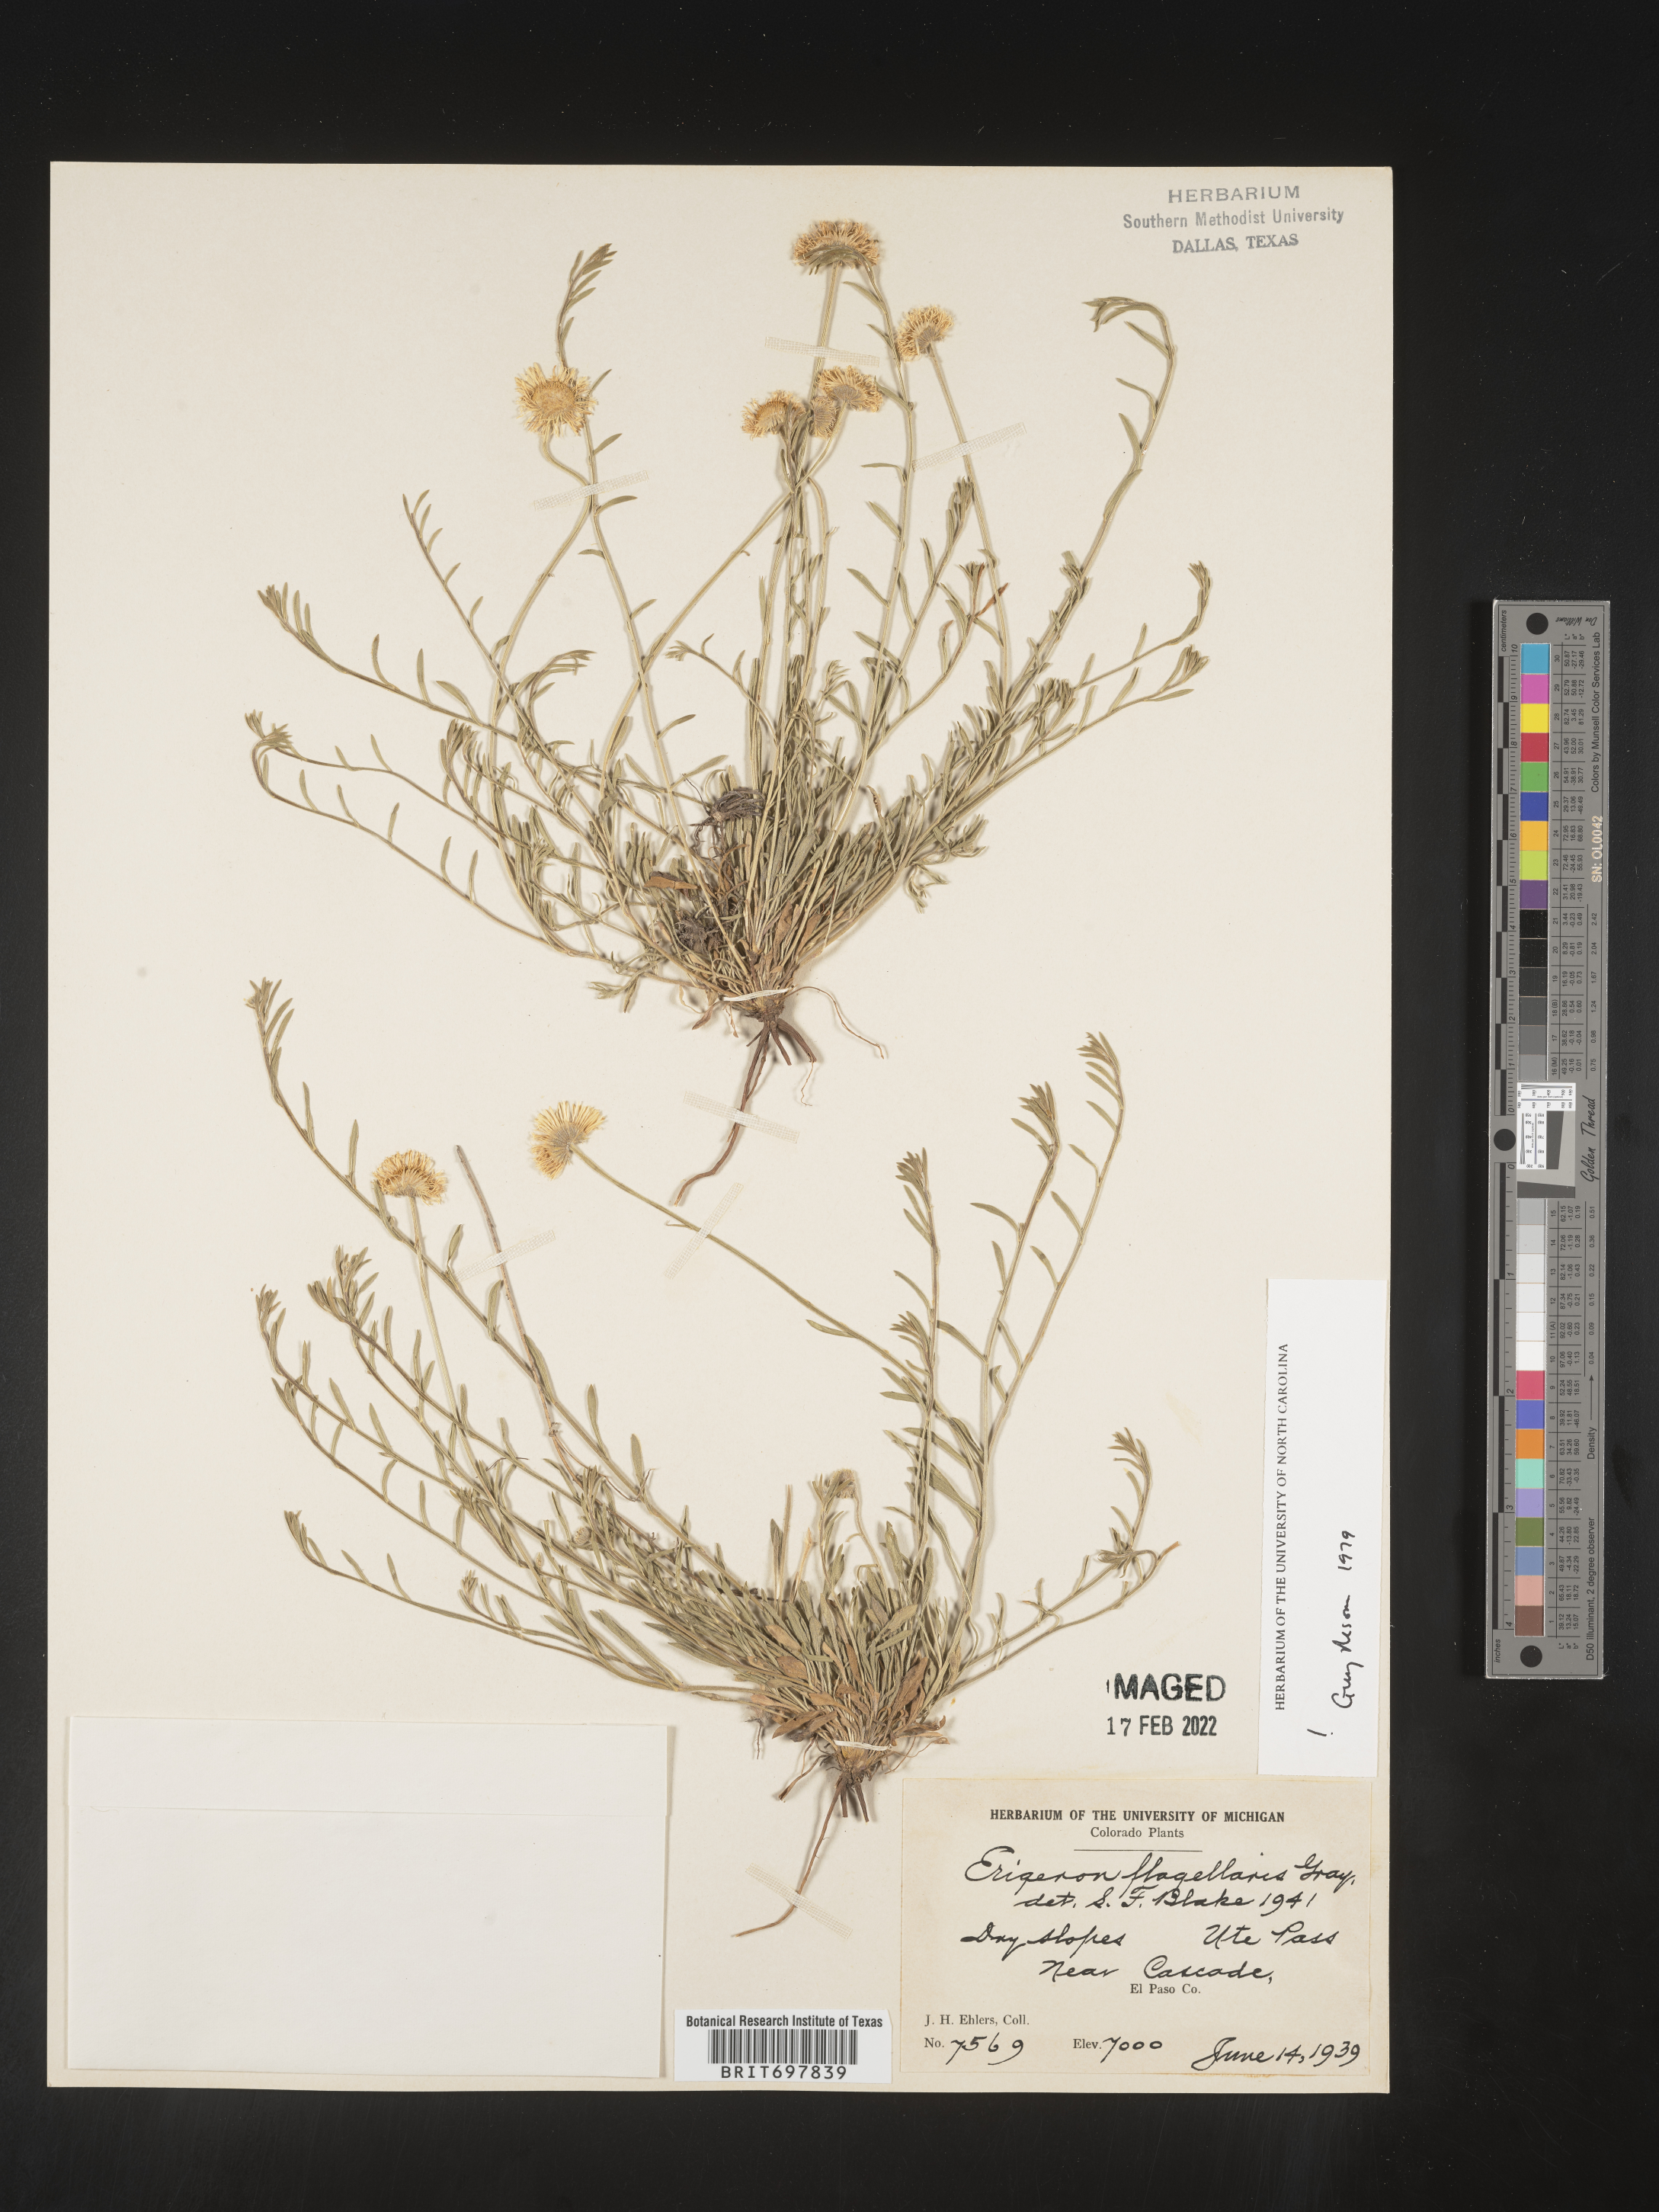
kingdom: Plantae
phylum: Tracheophyta
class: Magnoliopsida
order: Asterales
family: Asteraceae
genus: Erigeron
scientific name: Erigeron flagellaris
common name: Running fleabane
